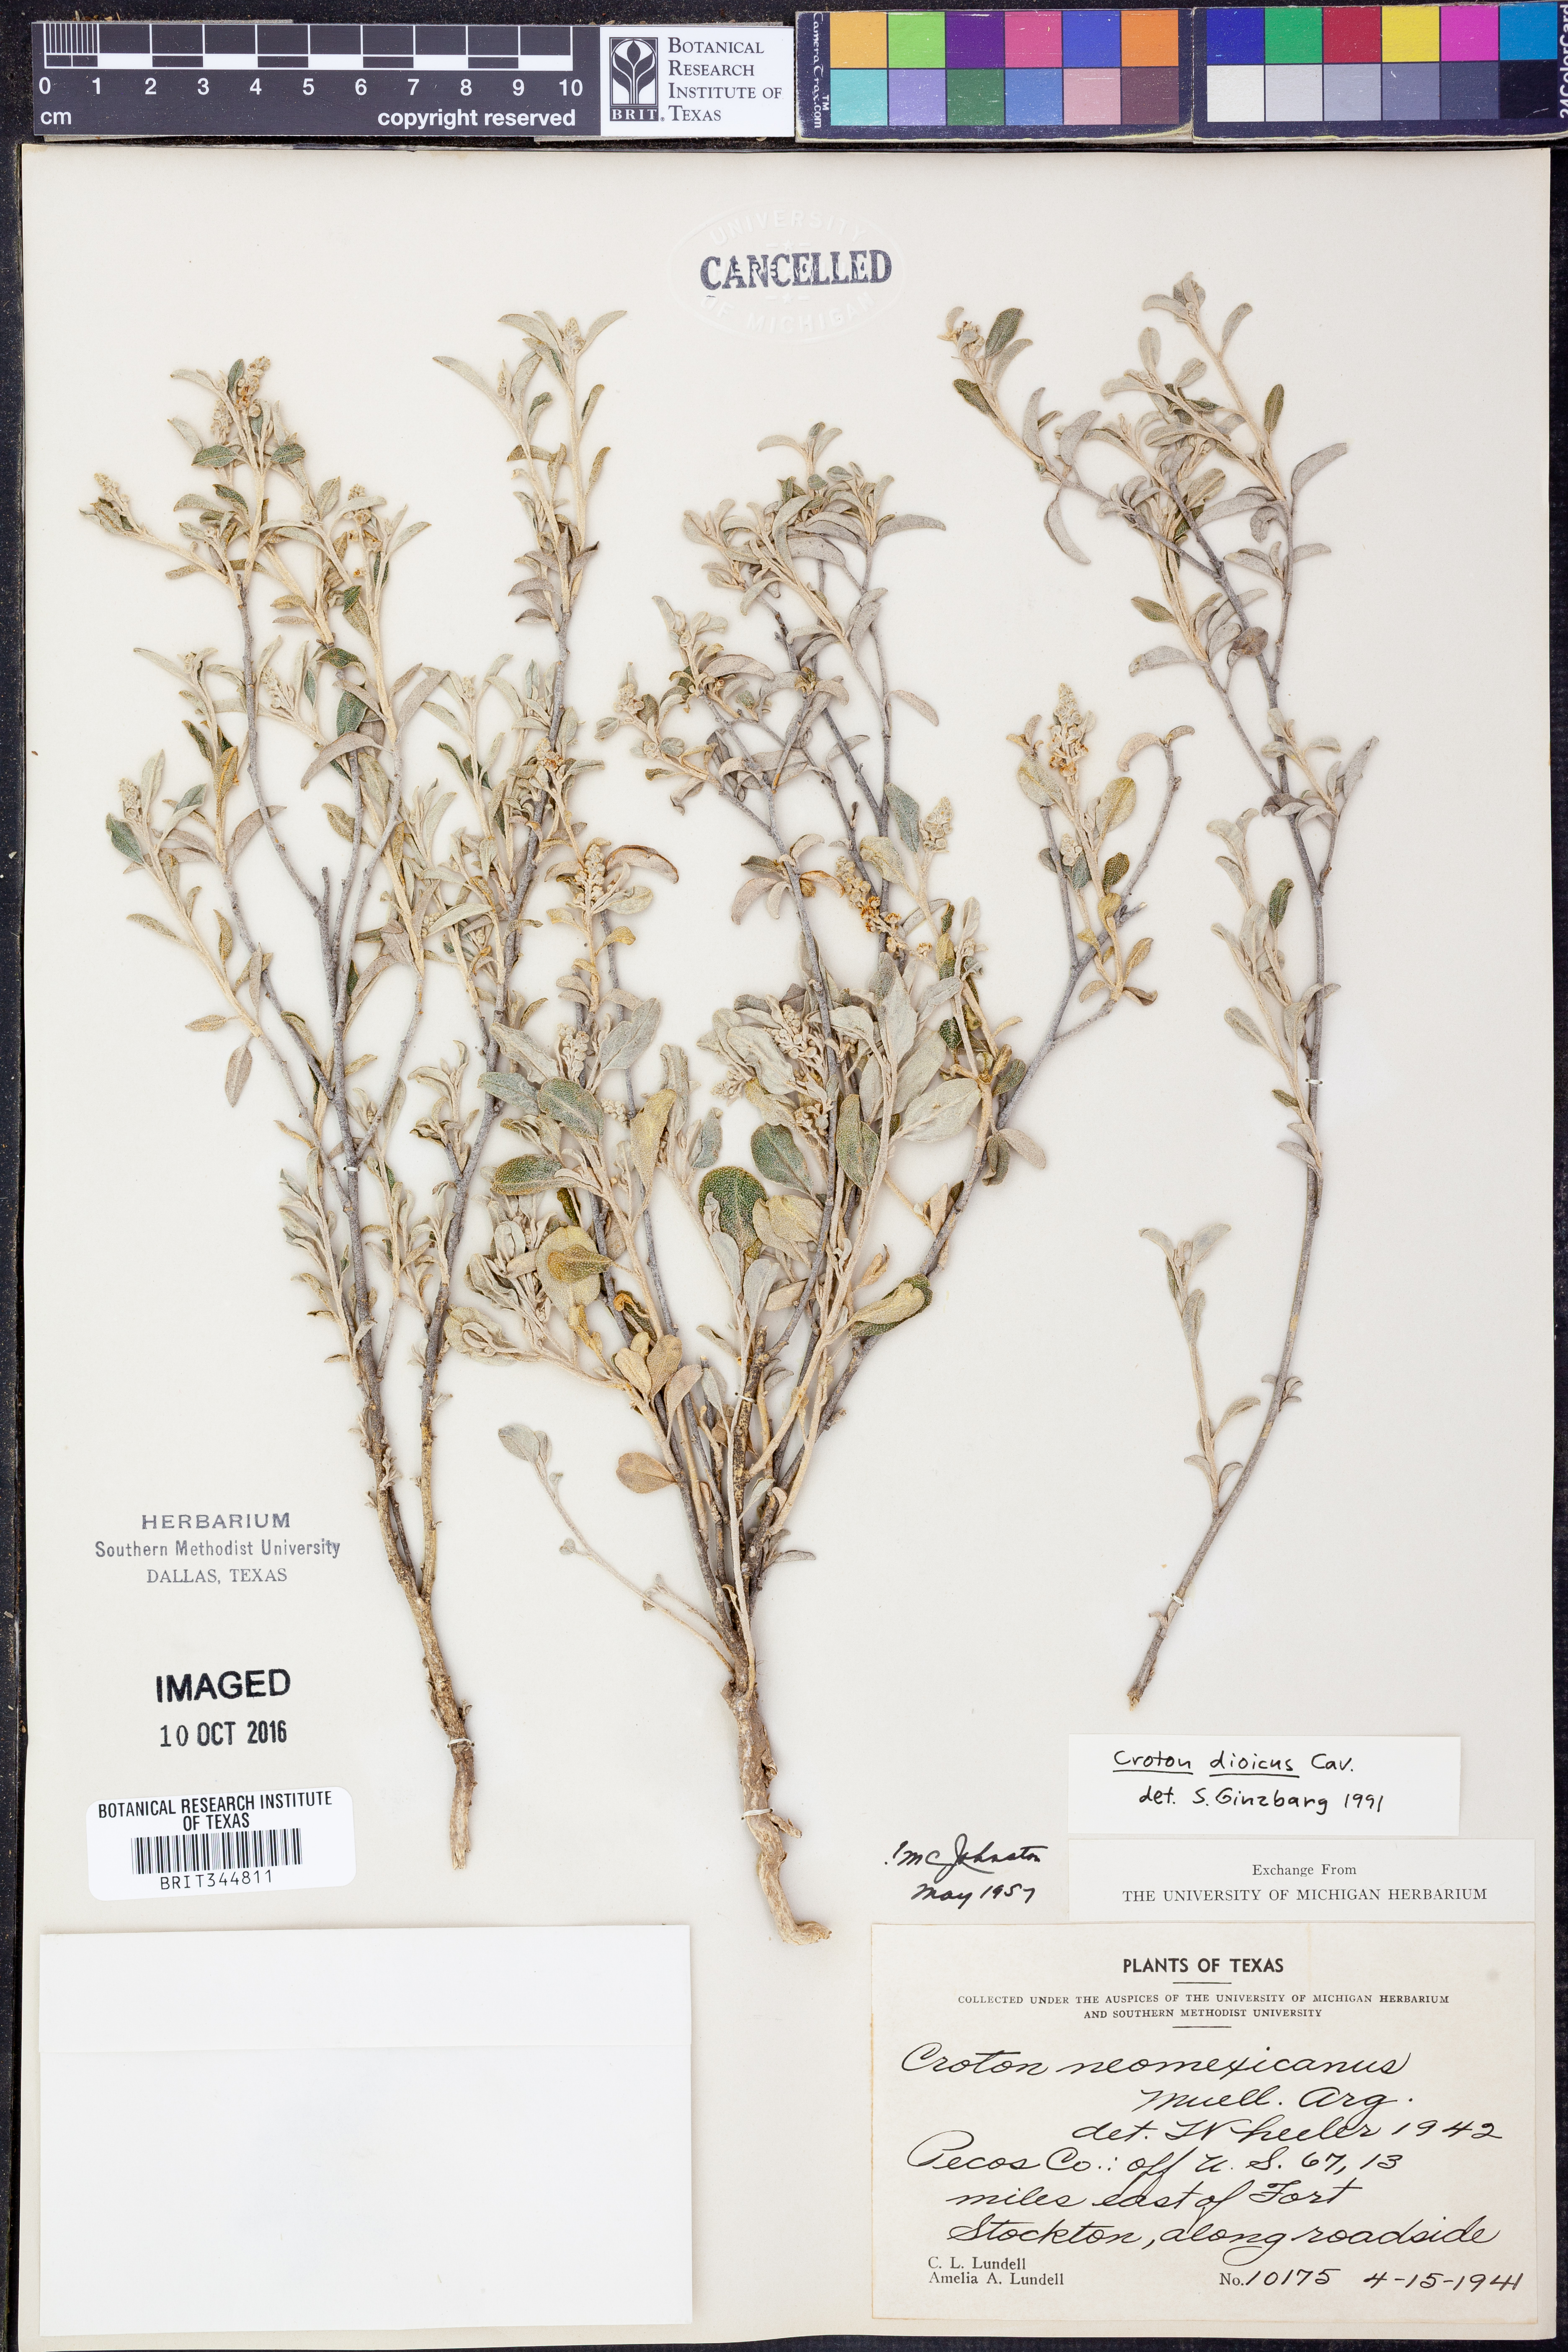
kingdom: Plantae
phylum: Tracheophyta
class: Magnoliopsida
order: Malpighiales
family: Euphorbiaceae
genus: Croton
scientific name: Croton dioicus
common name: Grassland croton
